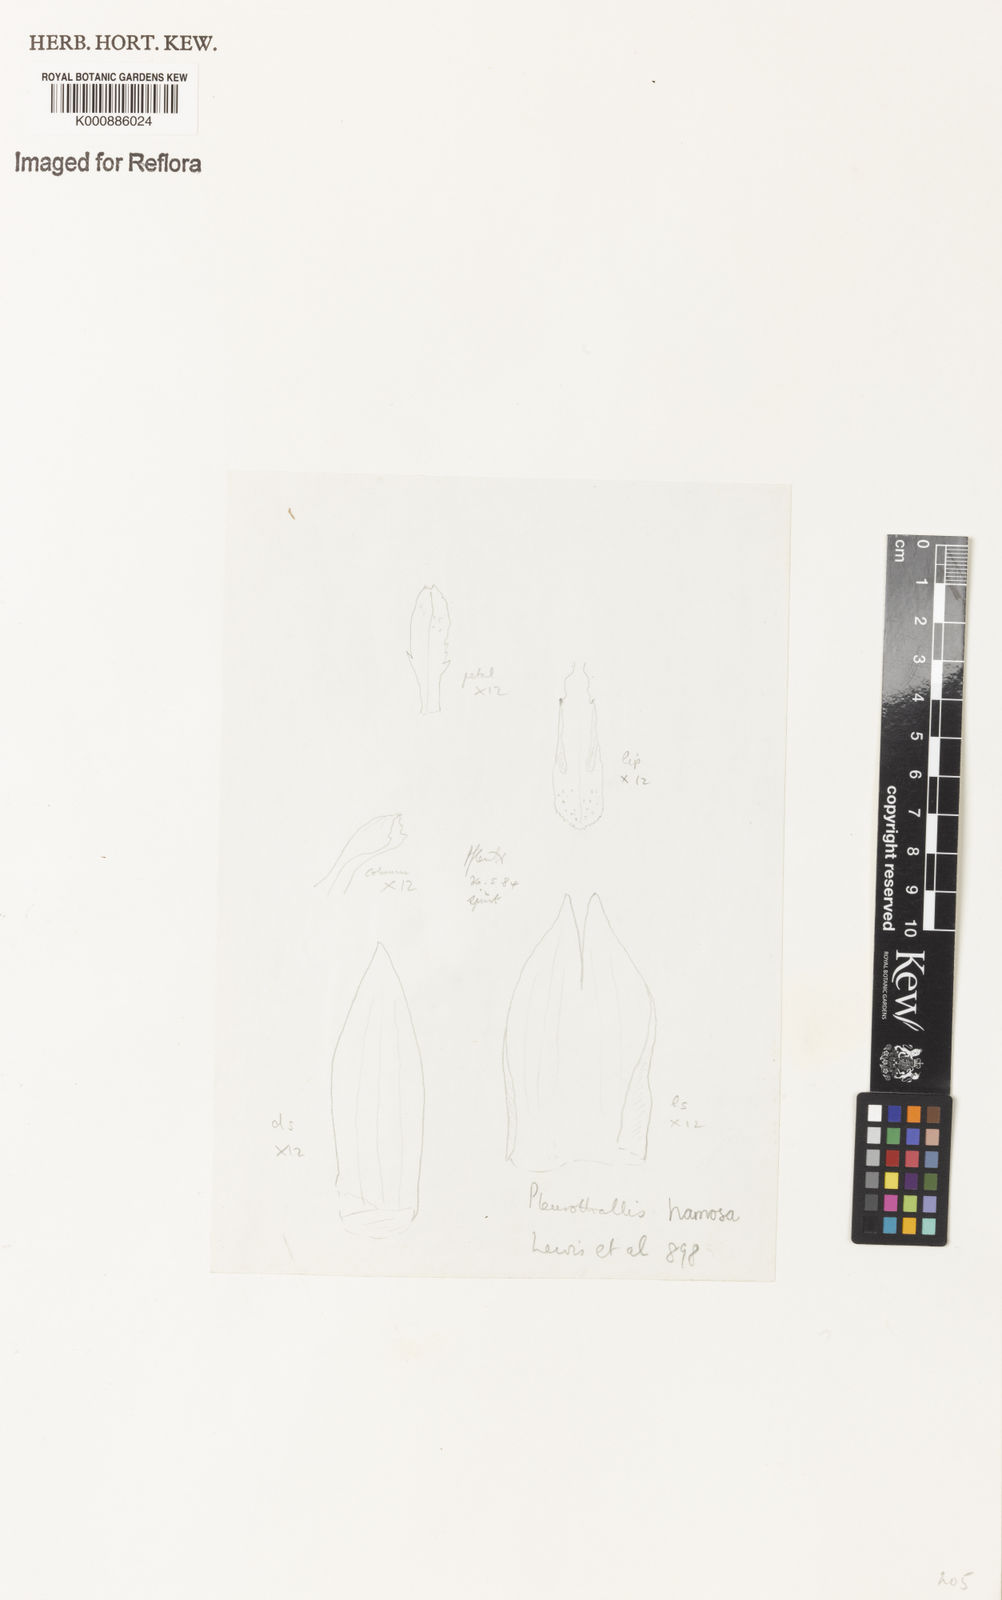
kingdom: Plantae
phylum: Tracheophyta
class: Liliopsida
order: Asparagales
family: Orchidaceae
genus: Acianthera
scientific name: Acianthera prolifera
